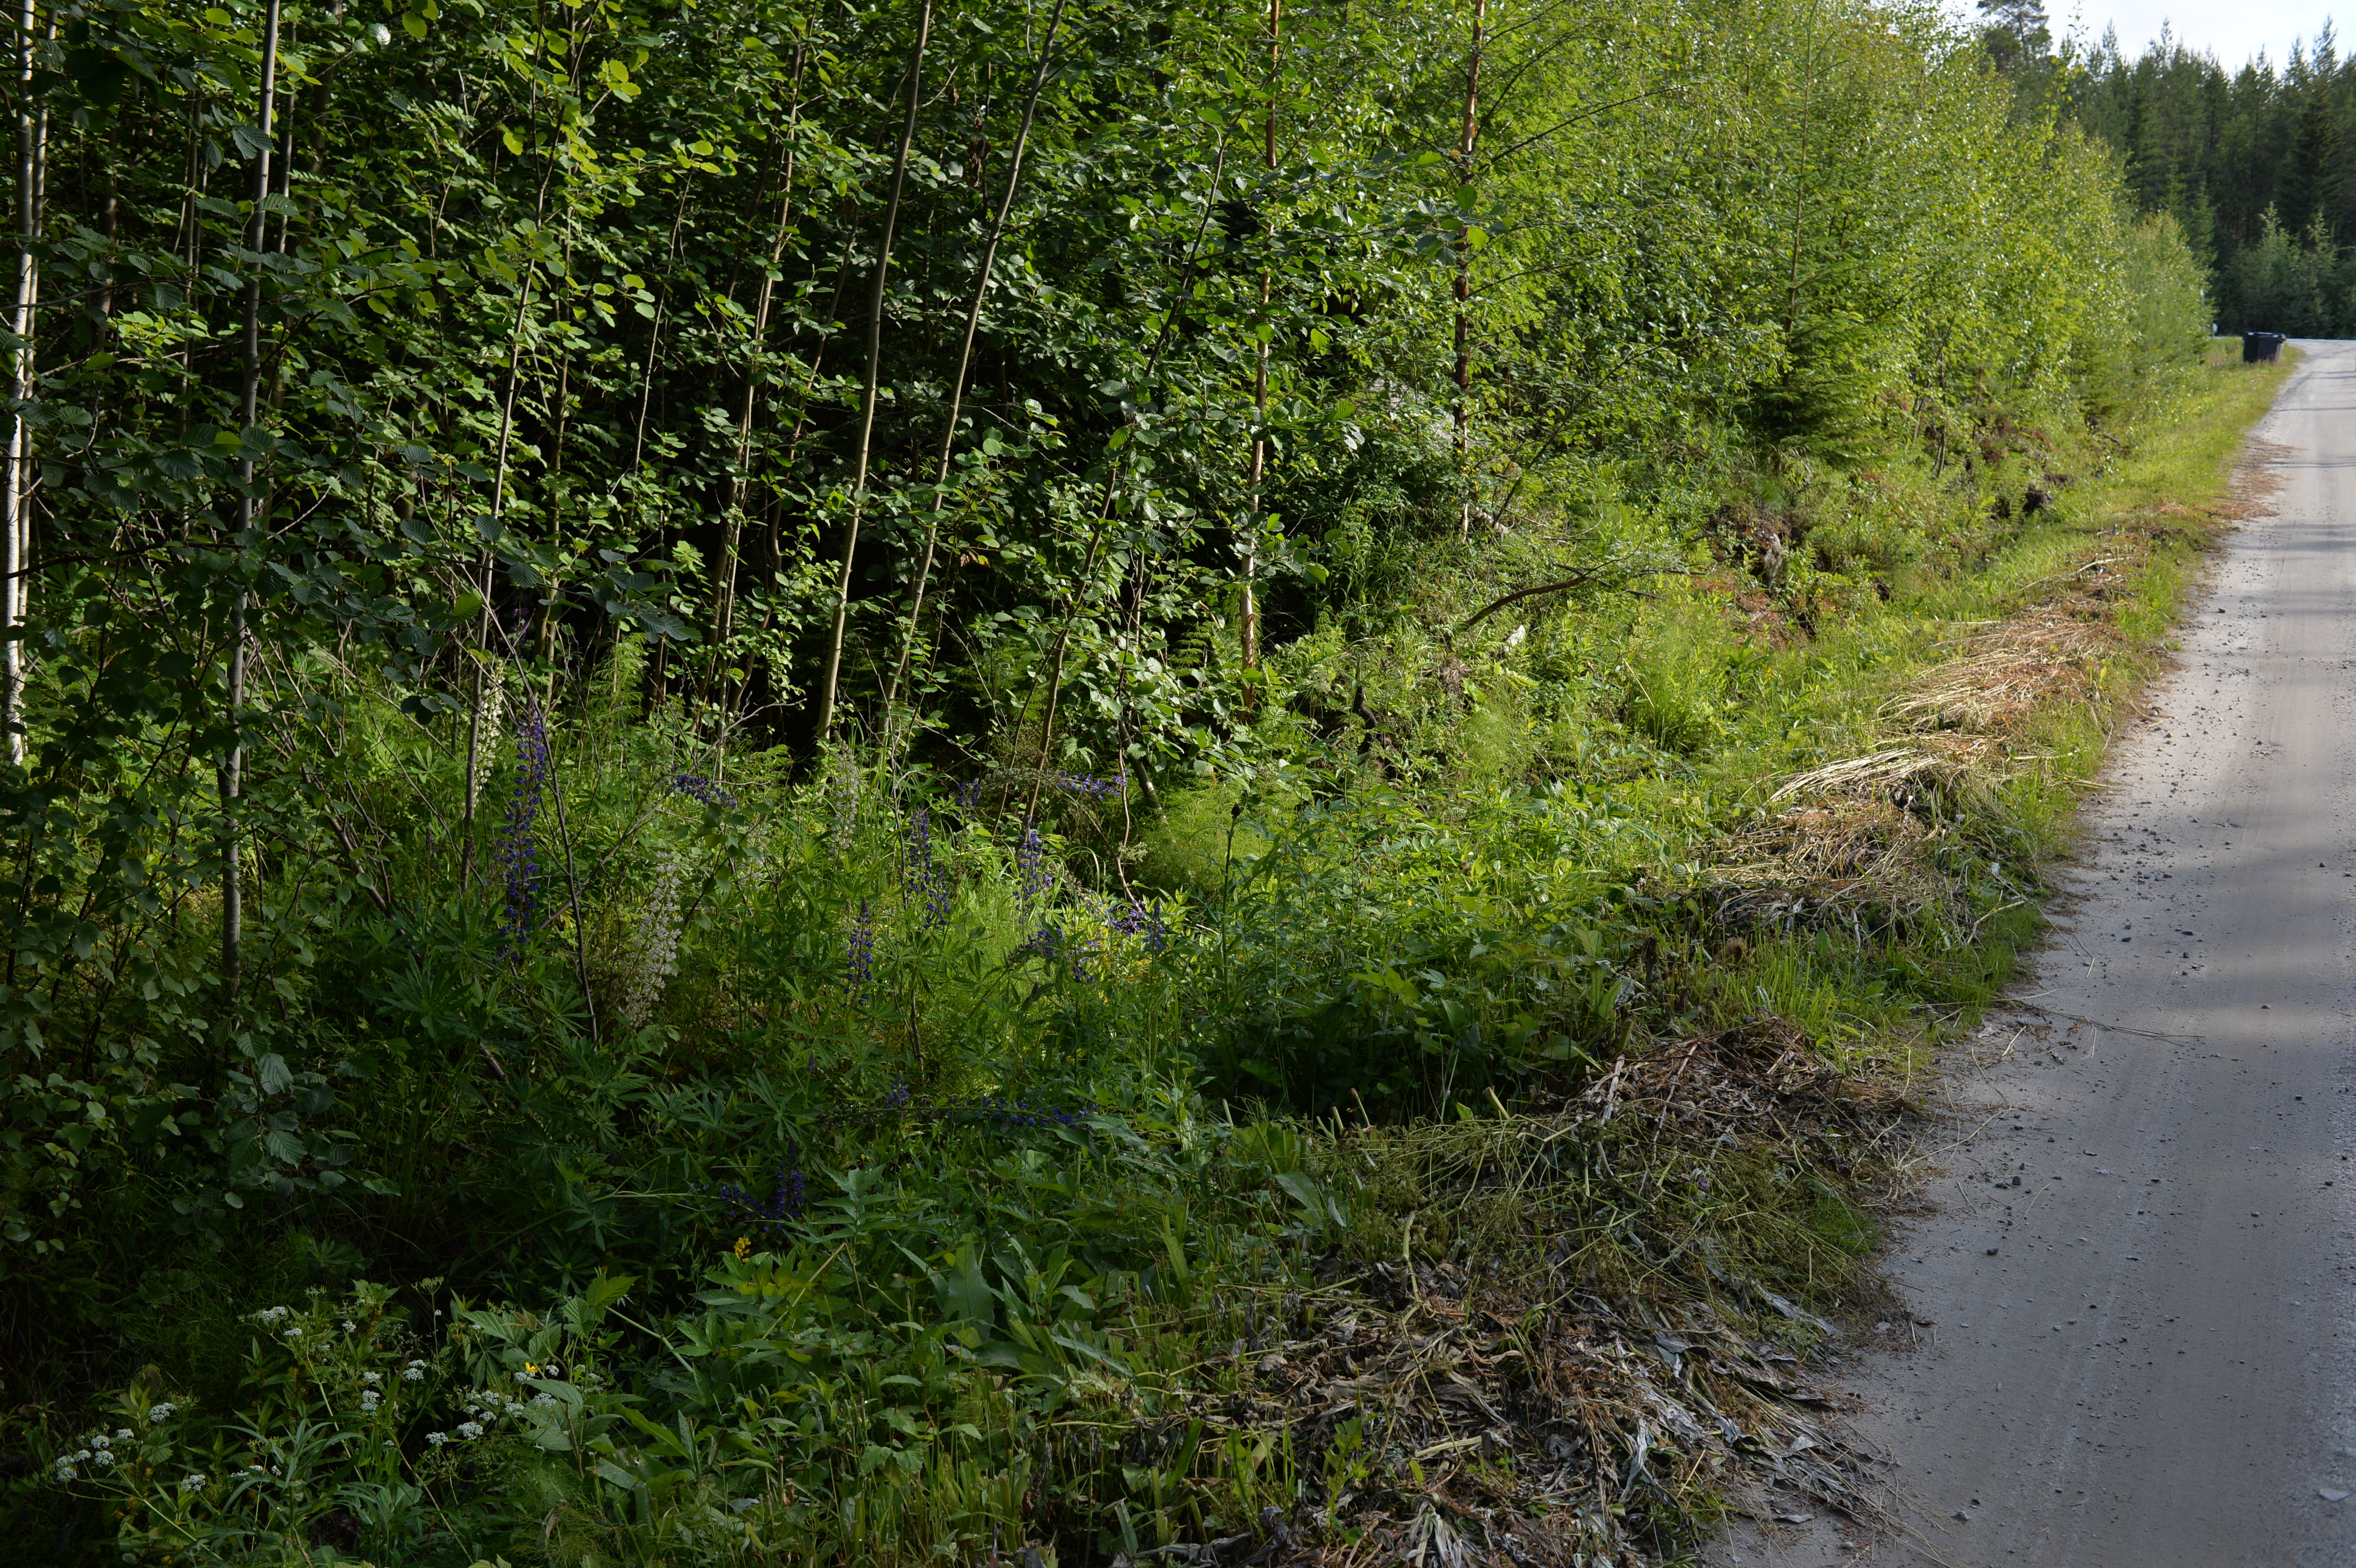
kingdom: Plantae
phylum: Tracheophyta
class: Magnoliopsida
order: Fabales
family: Fabaceae
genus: Lupinus
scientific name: Lupinus polyphyllus
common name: Garden lupin
